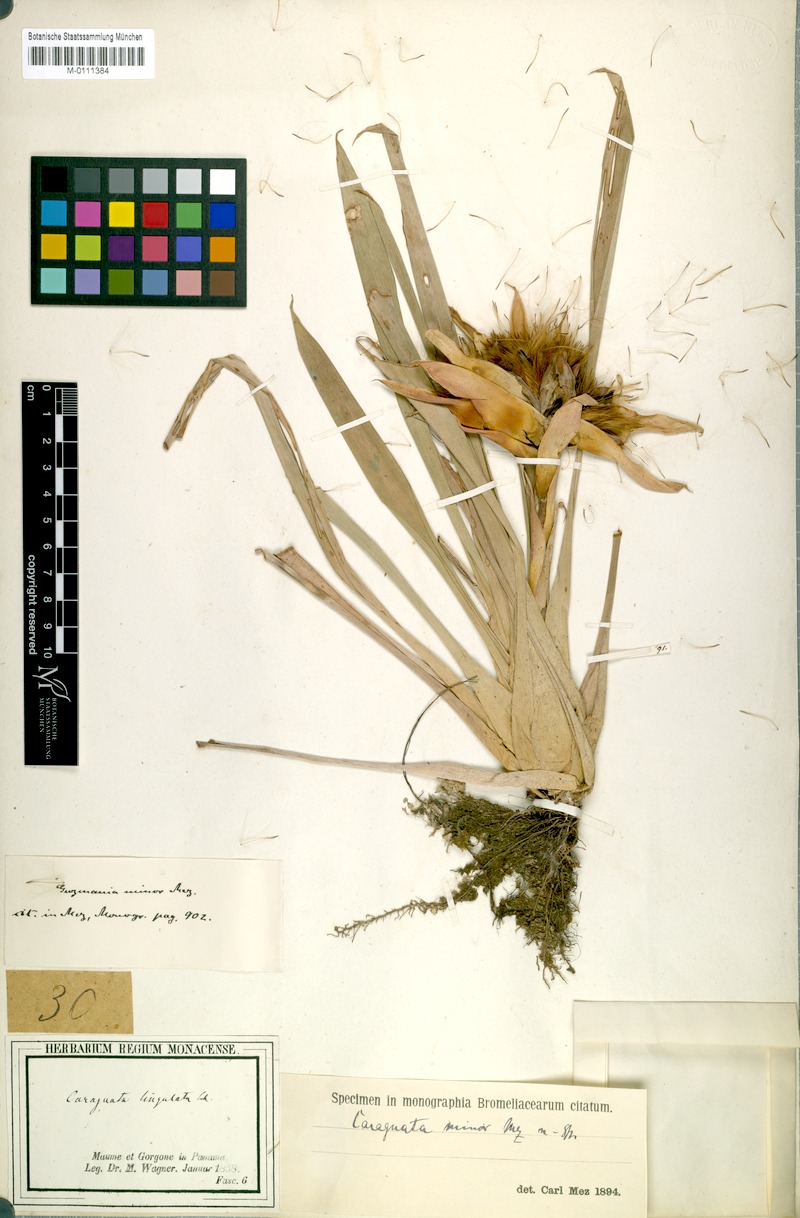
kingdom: Plantae
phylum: Tracheophyta
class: Liliopsida
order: Poales
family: Bromeliaceae
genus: Guzmania
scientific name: Guzmania lingulata
